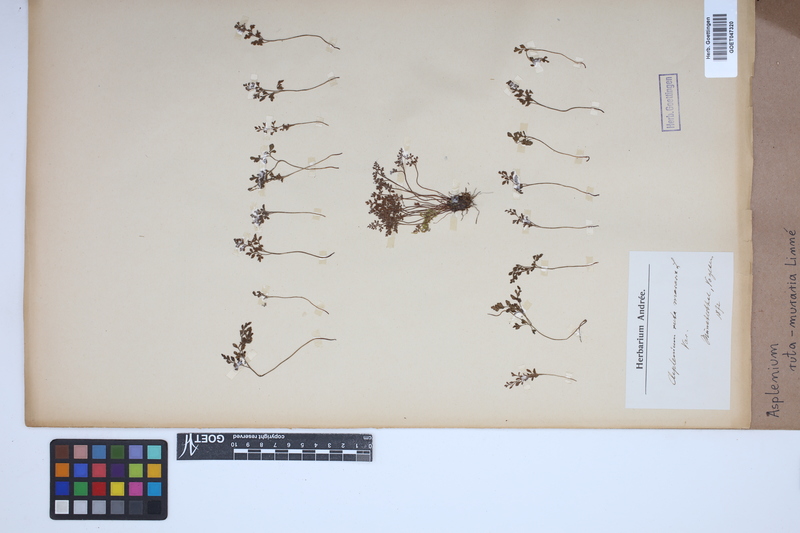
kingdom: Plantae
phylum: Tracheophyta
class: Polypodiopsida
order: Polypodiales
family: Aspleniaceae
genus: Asplenium
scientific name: Asplenium ruta-muraria
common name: Wall-rue
